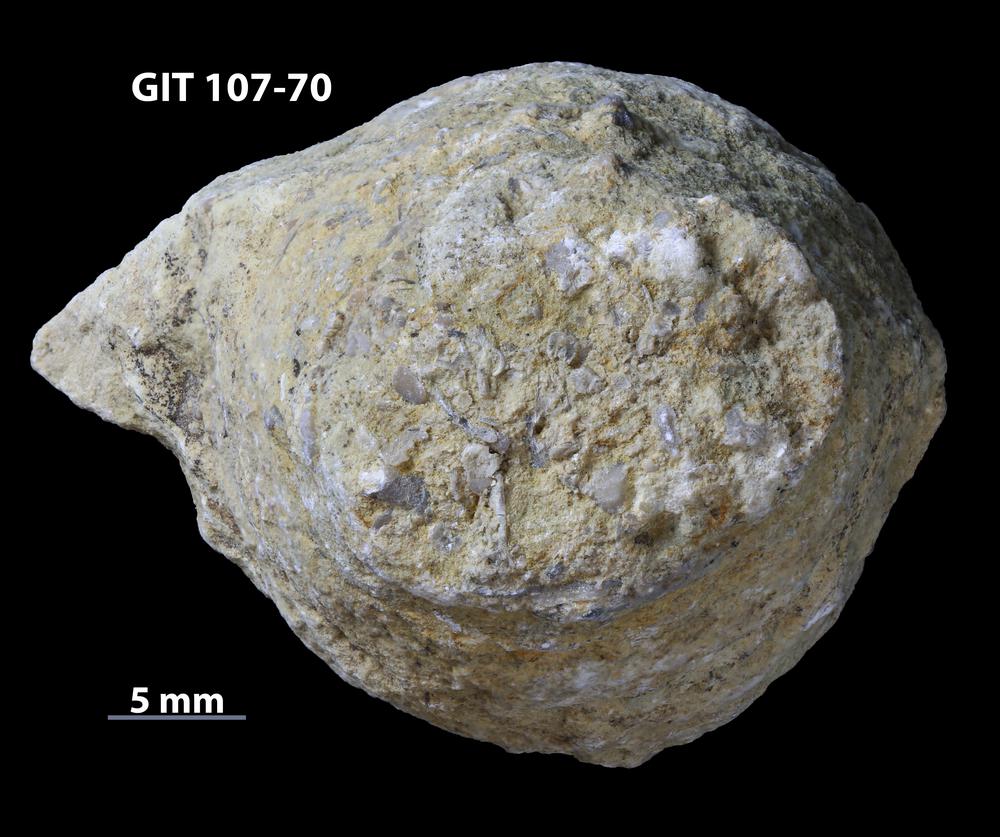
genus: Amphorichnus
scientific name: Amphorichnus
